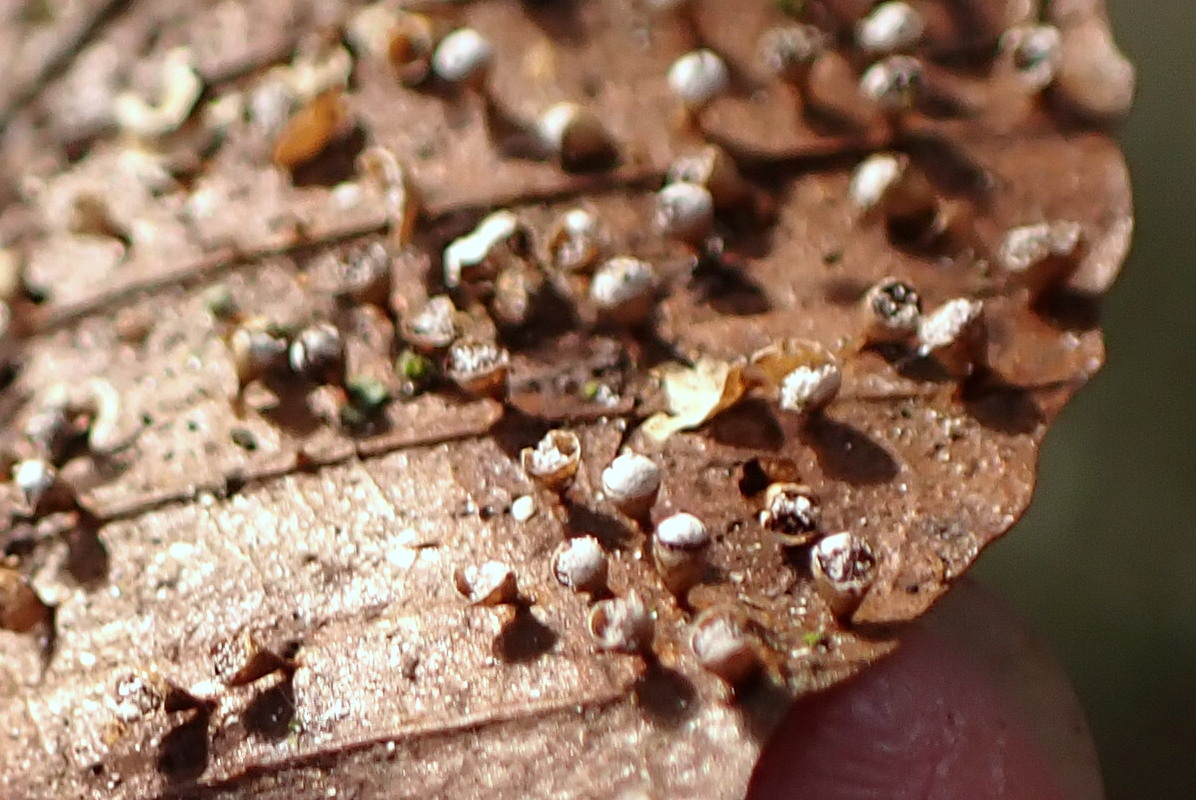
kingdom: Protozoa
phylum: Mycetozoa
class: Myxomycetes
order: Physarales
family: Physaraceae
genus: Craterium
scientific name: Craterium minutum
